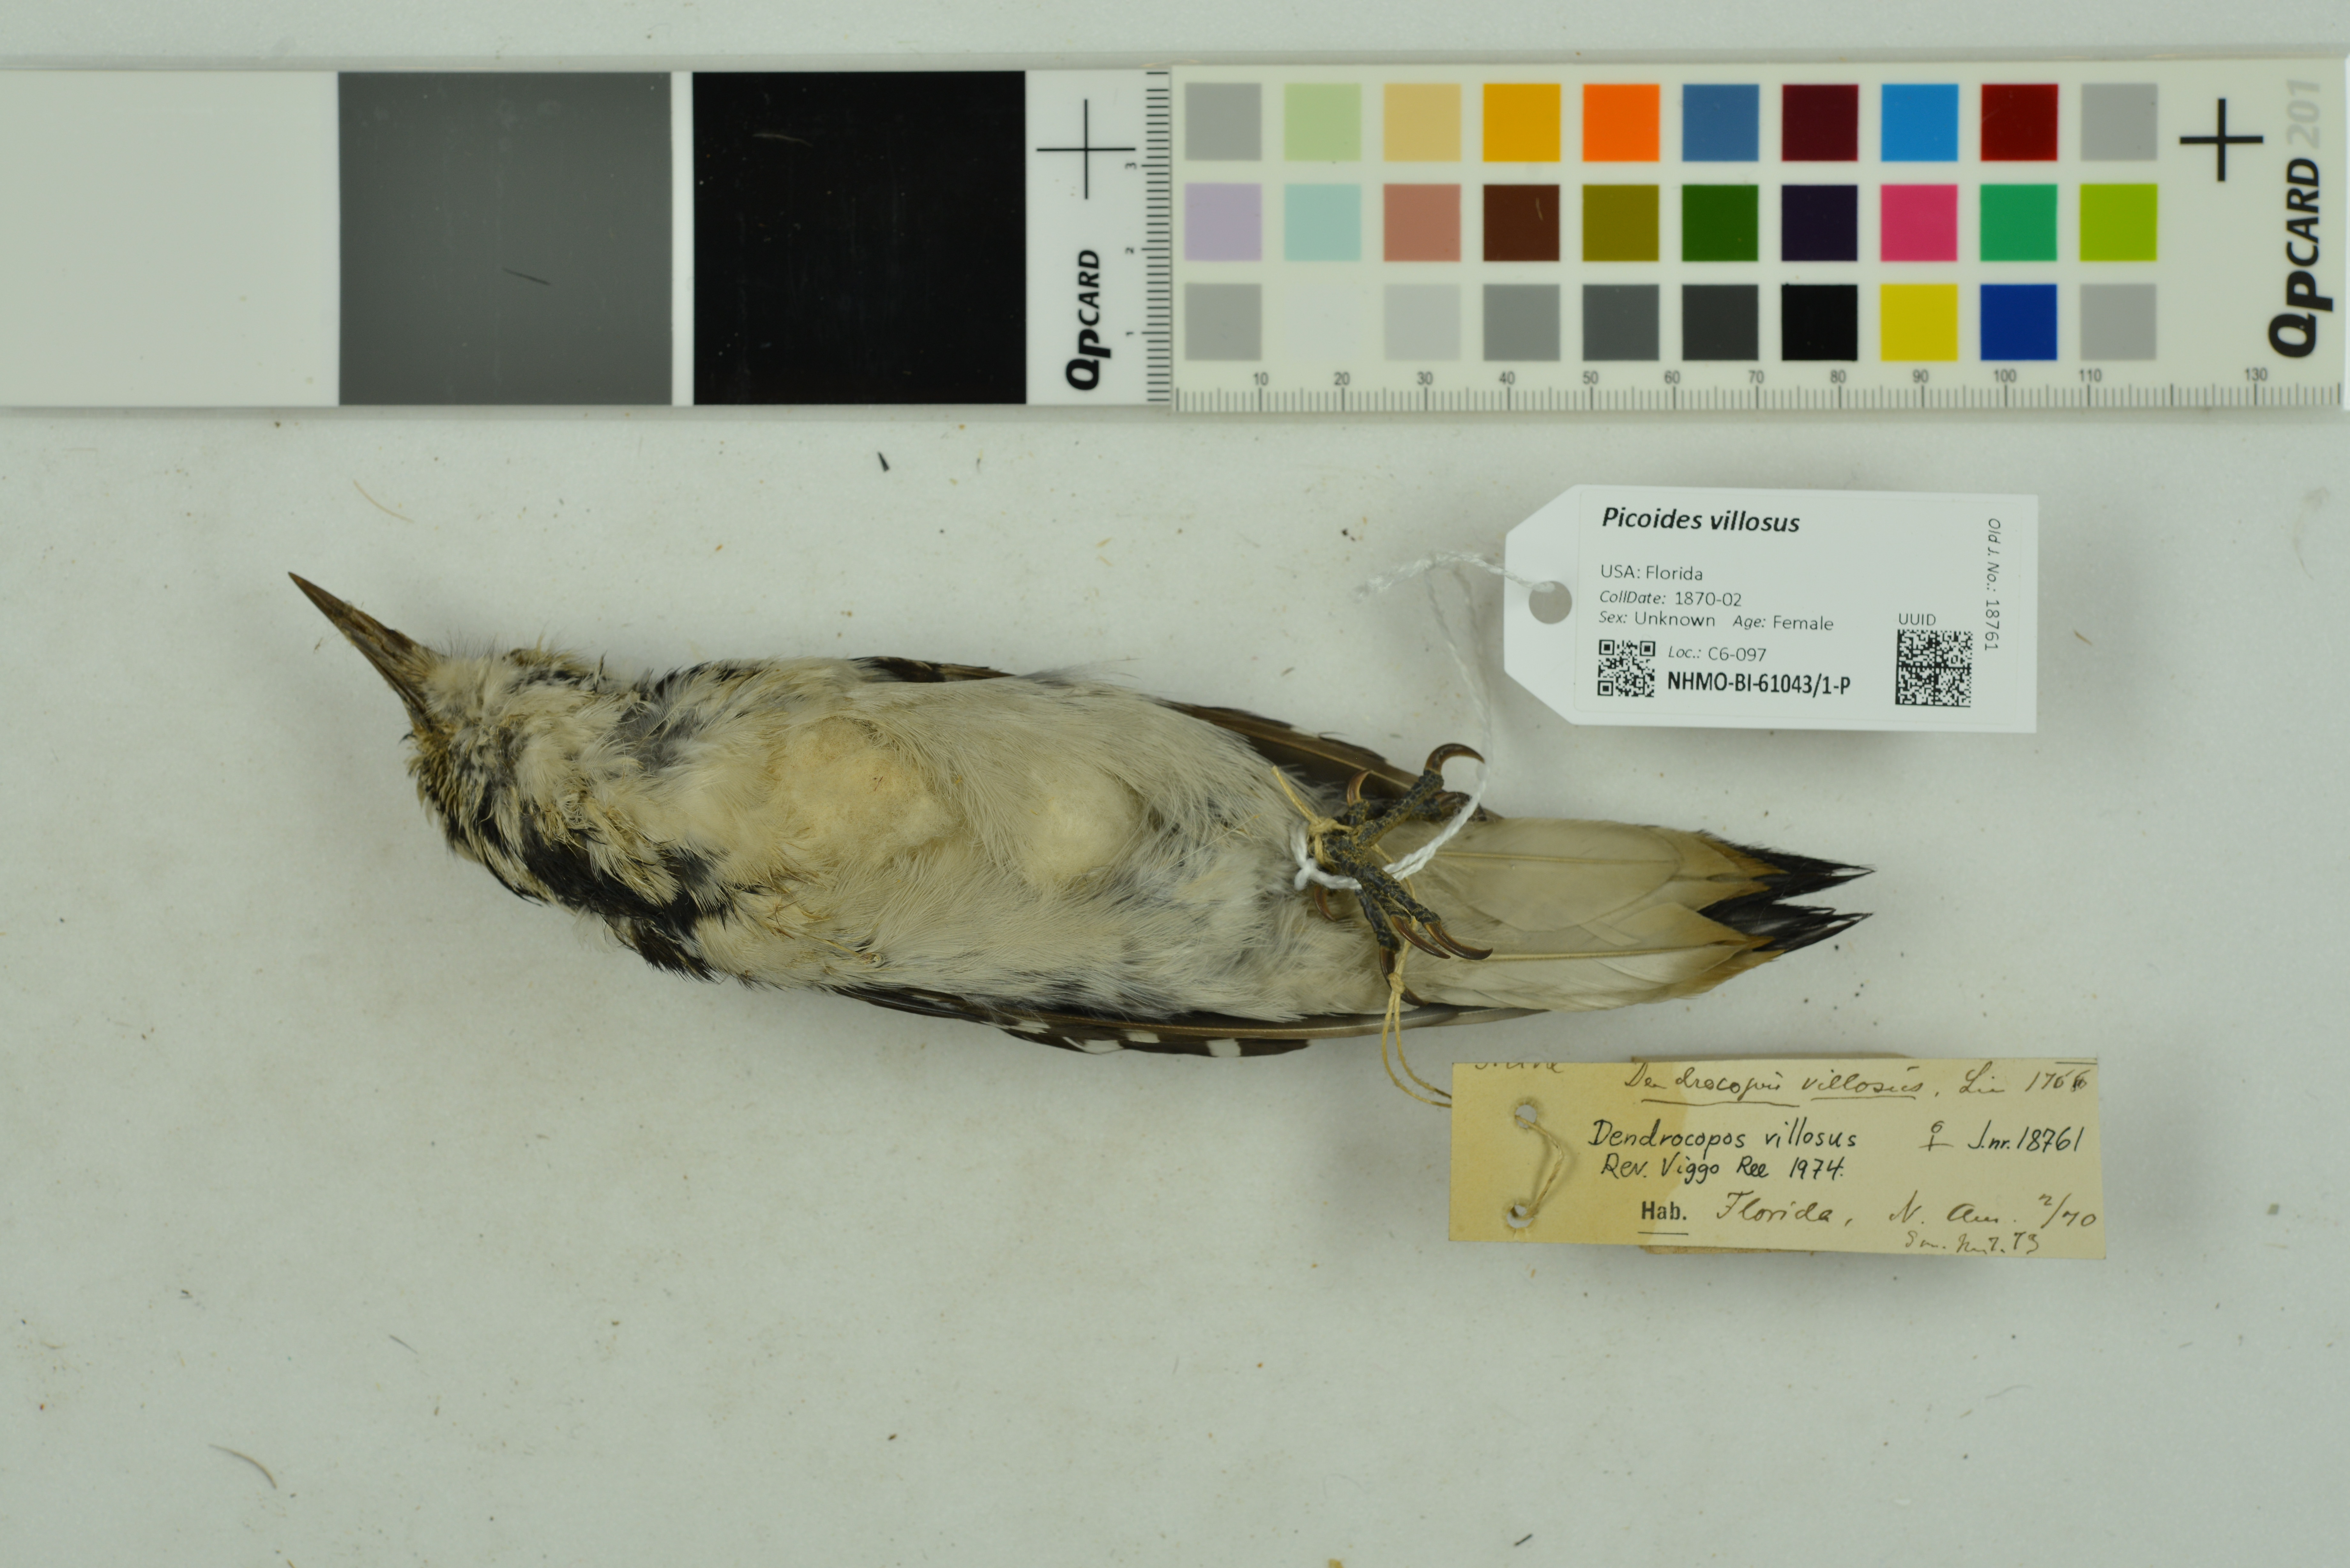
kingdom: Animalia
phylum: Chordata
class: Aves
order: Piciformes
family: Picidae
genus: Leuconotopicus
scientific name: Leuconotopicus villosus
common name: Hairy woodpecker
